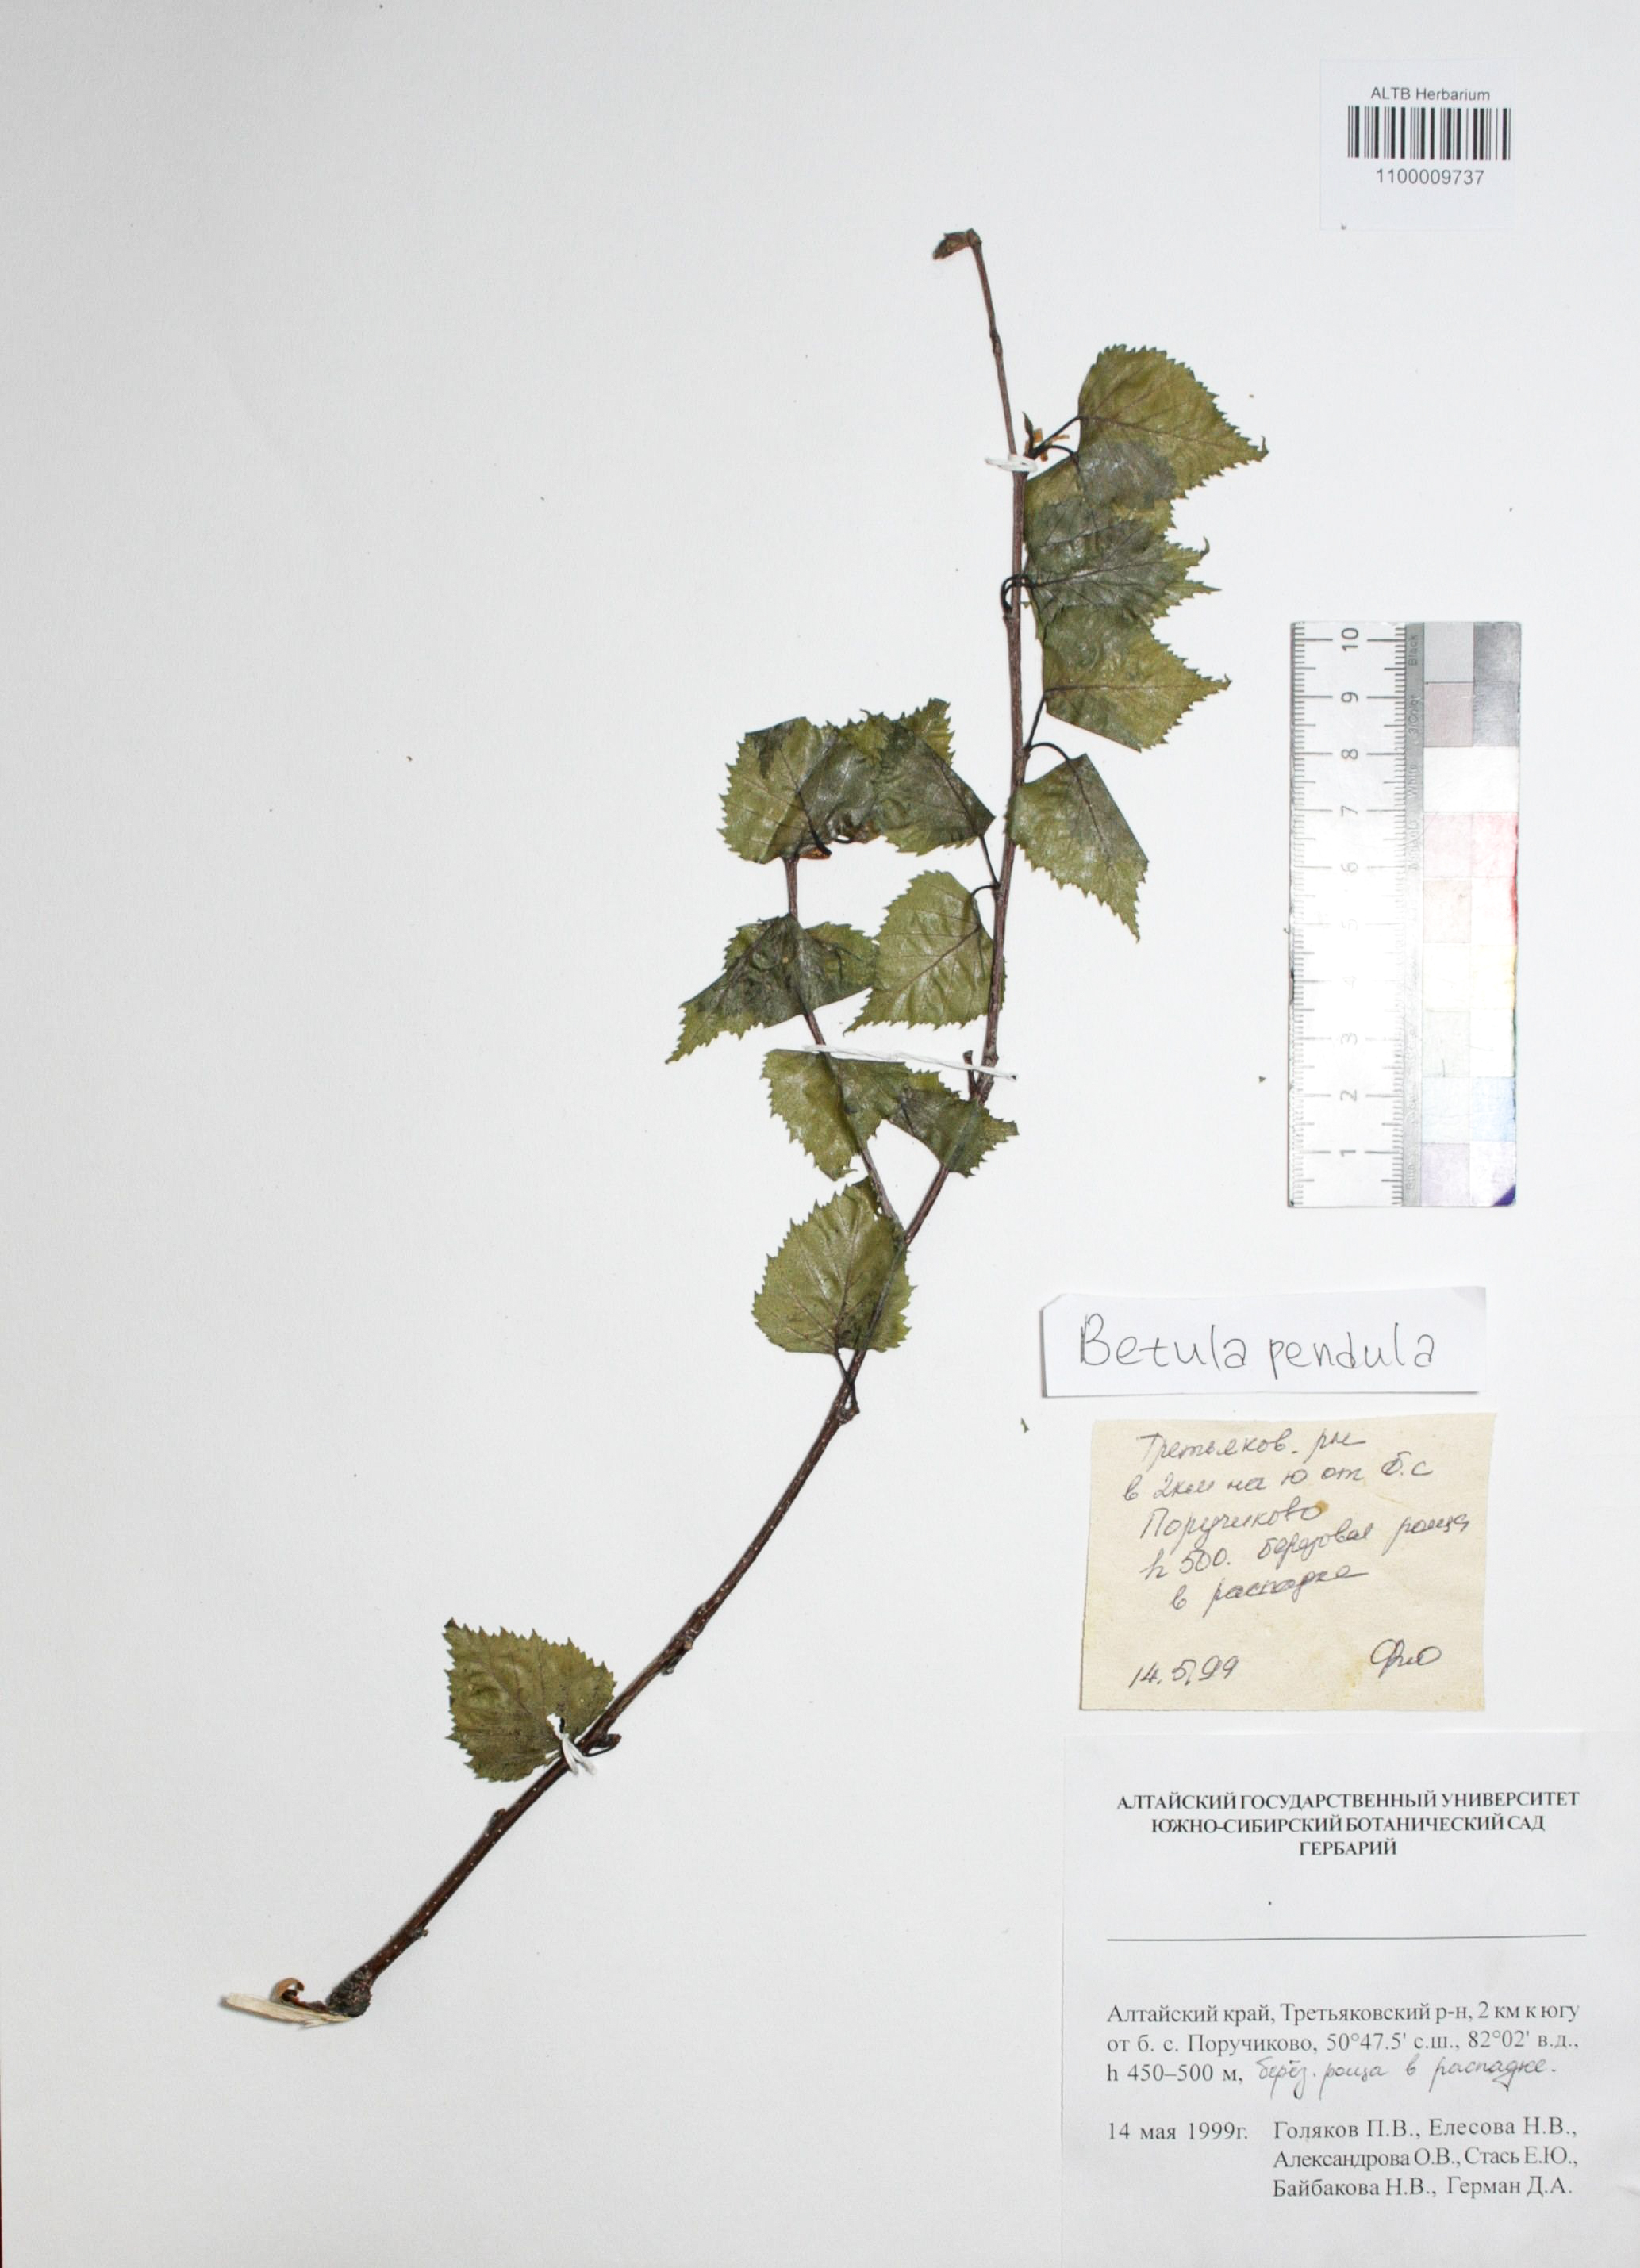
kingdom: Plantae
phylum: Tracheophyta
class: Magnoliopsida
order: Fagales
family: Betulaceae
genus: Betula
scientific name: Betula pendula
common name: Silver birch
